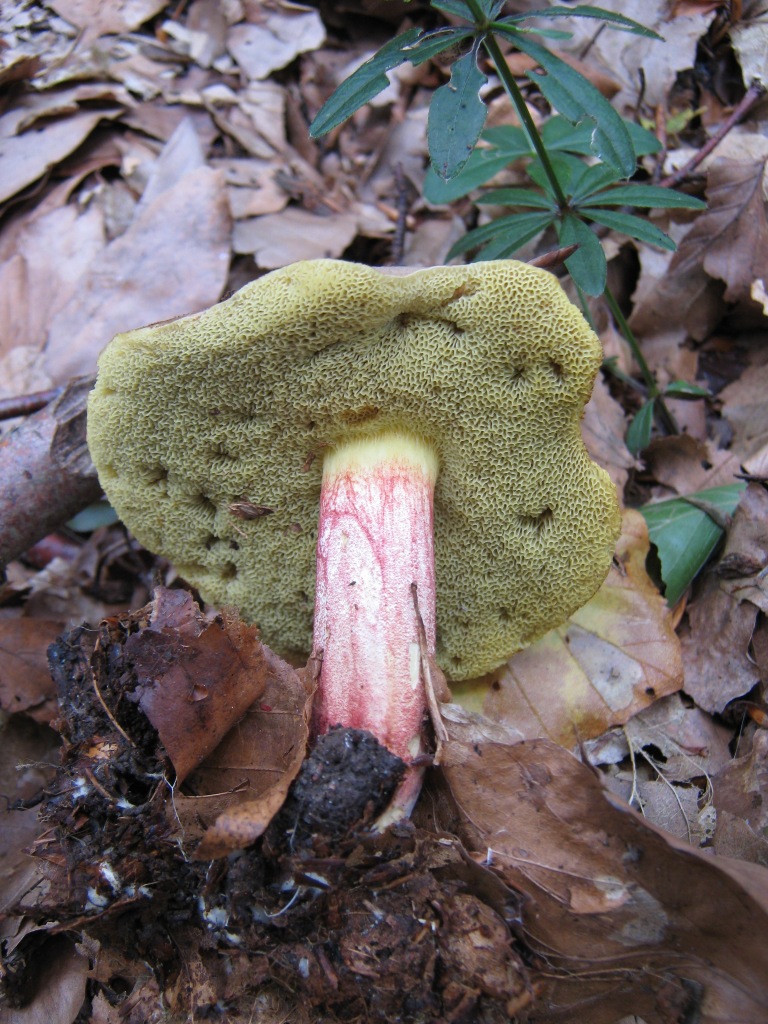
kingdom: Fungi
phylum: Basidiomycota
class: Agaricomycetes
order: Boletales
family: Boletaceae
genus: Xerocomellus
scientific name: Xerocomellus chrysenteron
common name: rødsprukken rørhat
